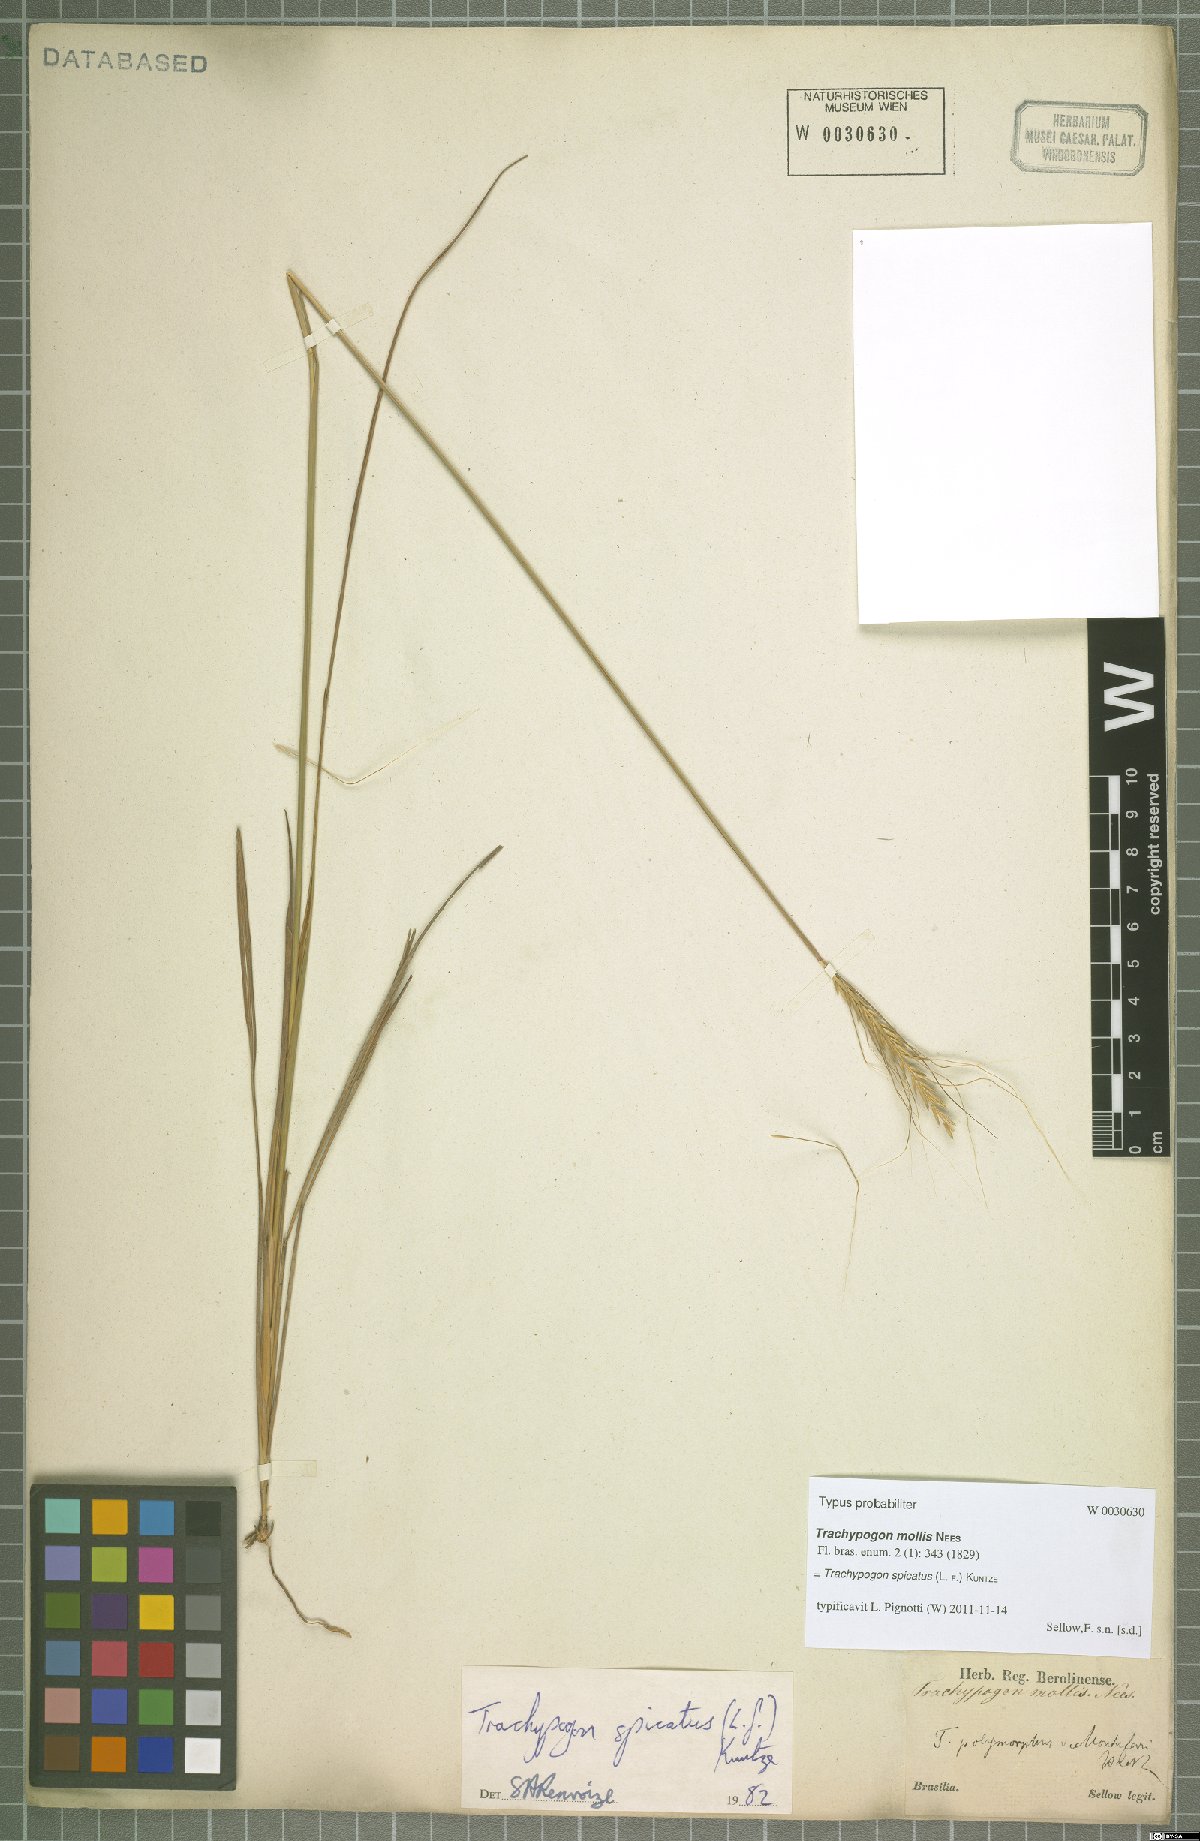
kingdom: Plantae
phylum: Tracheophyta
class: Liliopsida
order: Poales
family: Poaceae
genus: Trachypogon
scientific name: Trachypogon spicatus
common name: Crinkle-awn
